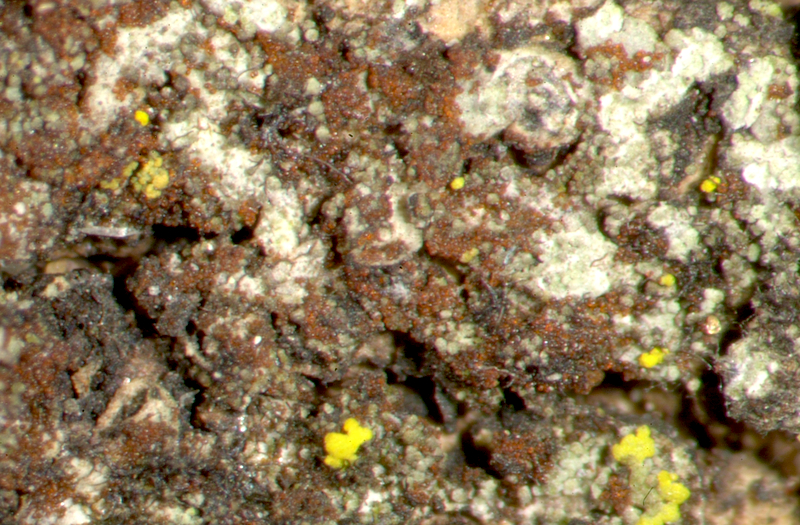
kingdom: Fungi
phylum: Ascomycota
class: Lecanoromycetes
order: Caliciales
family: Physciaceae
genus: Hyperphyscia
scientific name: Hyperphyscia adglutinata
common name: Grainy shadow-crust lichen
